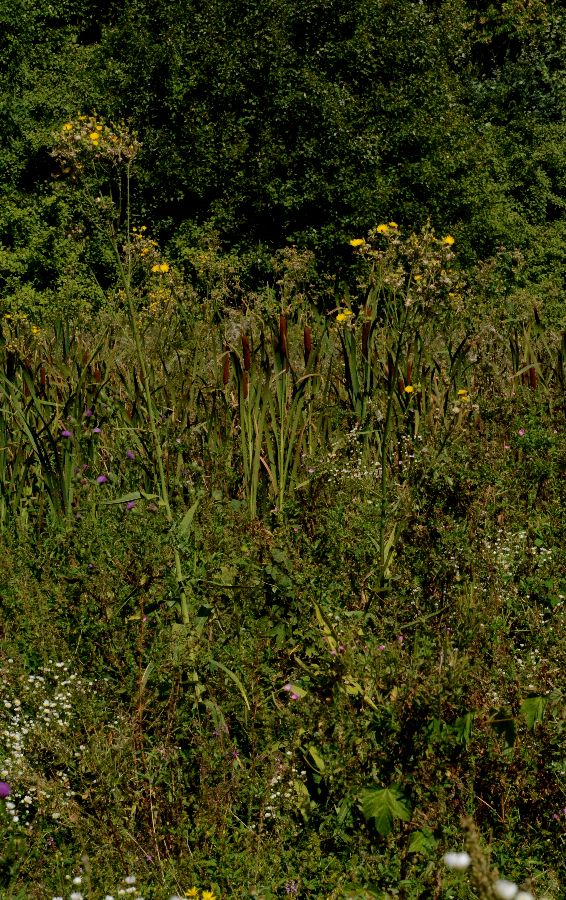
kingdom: Plantae
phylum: Tracheophyta
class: Magnoliopsida
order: Asterales
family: Asteraceae
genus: Sonchus
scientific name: Sonchus palustris
